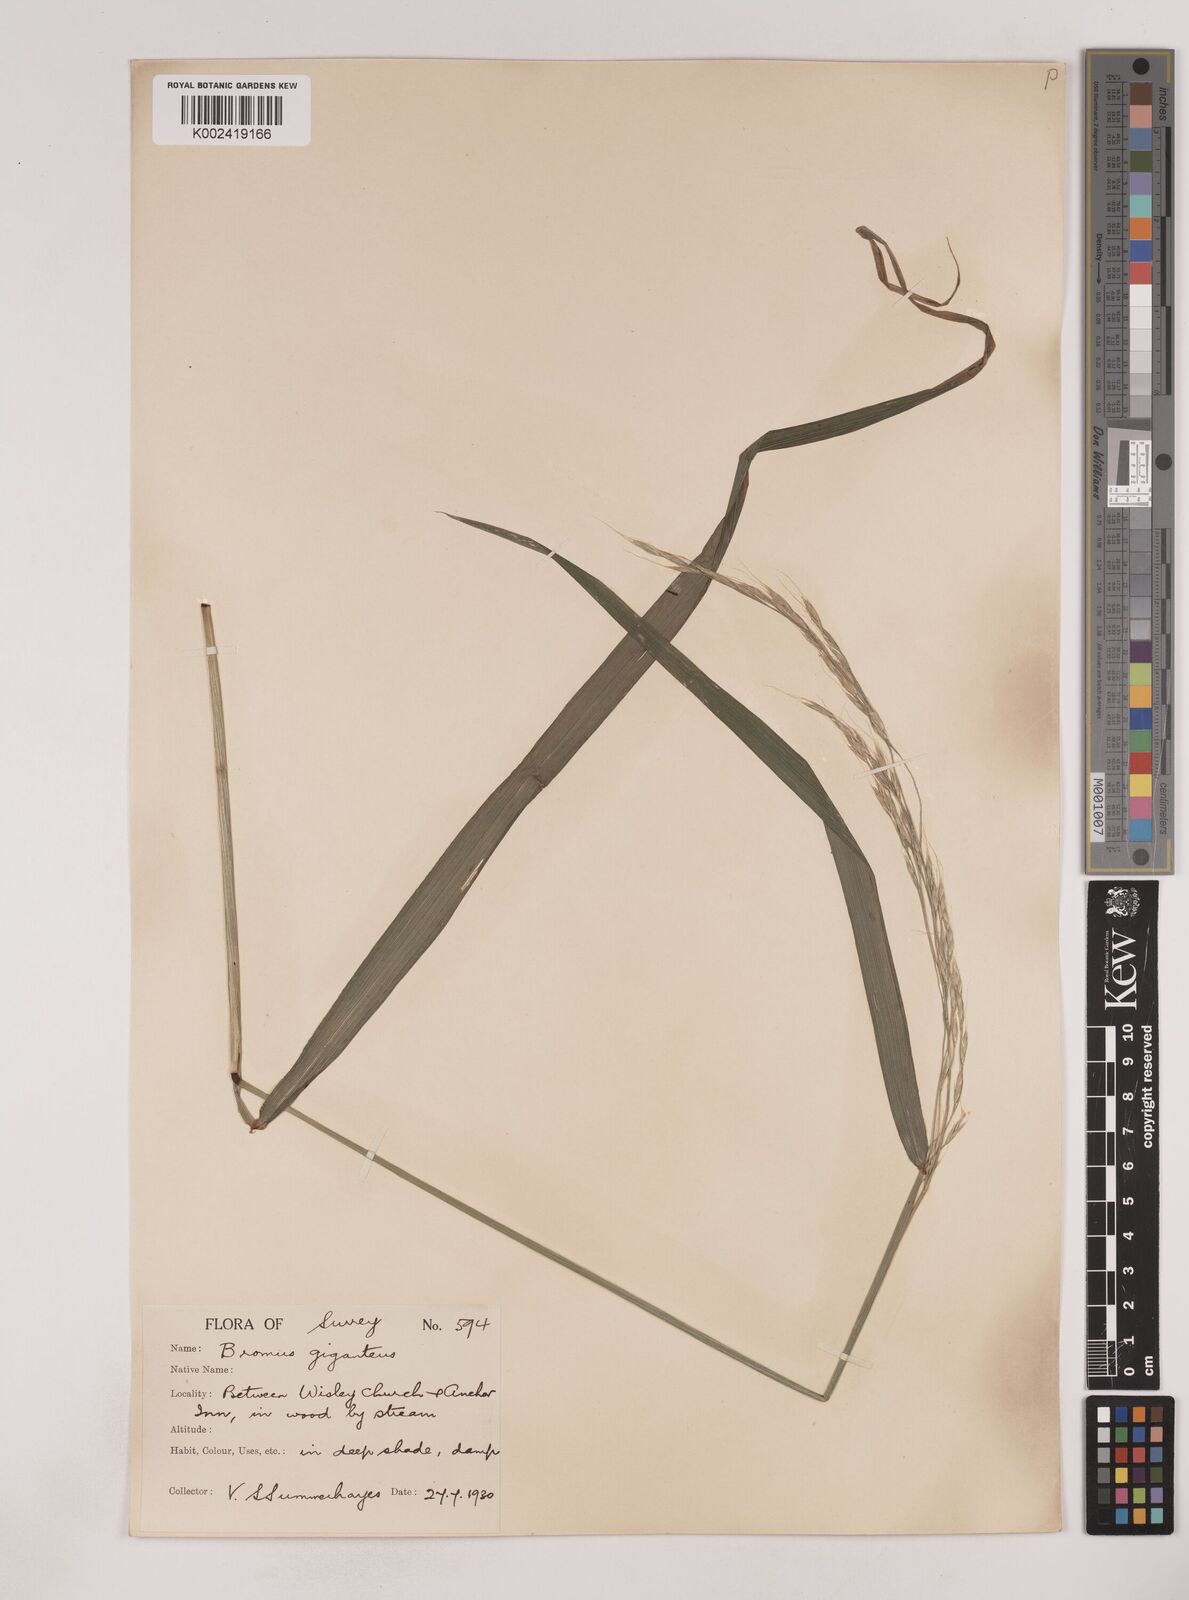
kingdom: Plantae
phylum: Tracheophyta
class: Liliopsida
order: Poales
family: Poaceae
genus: Lolium
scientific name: Lolium giganteum
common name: Giant fescue
